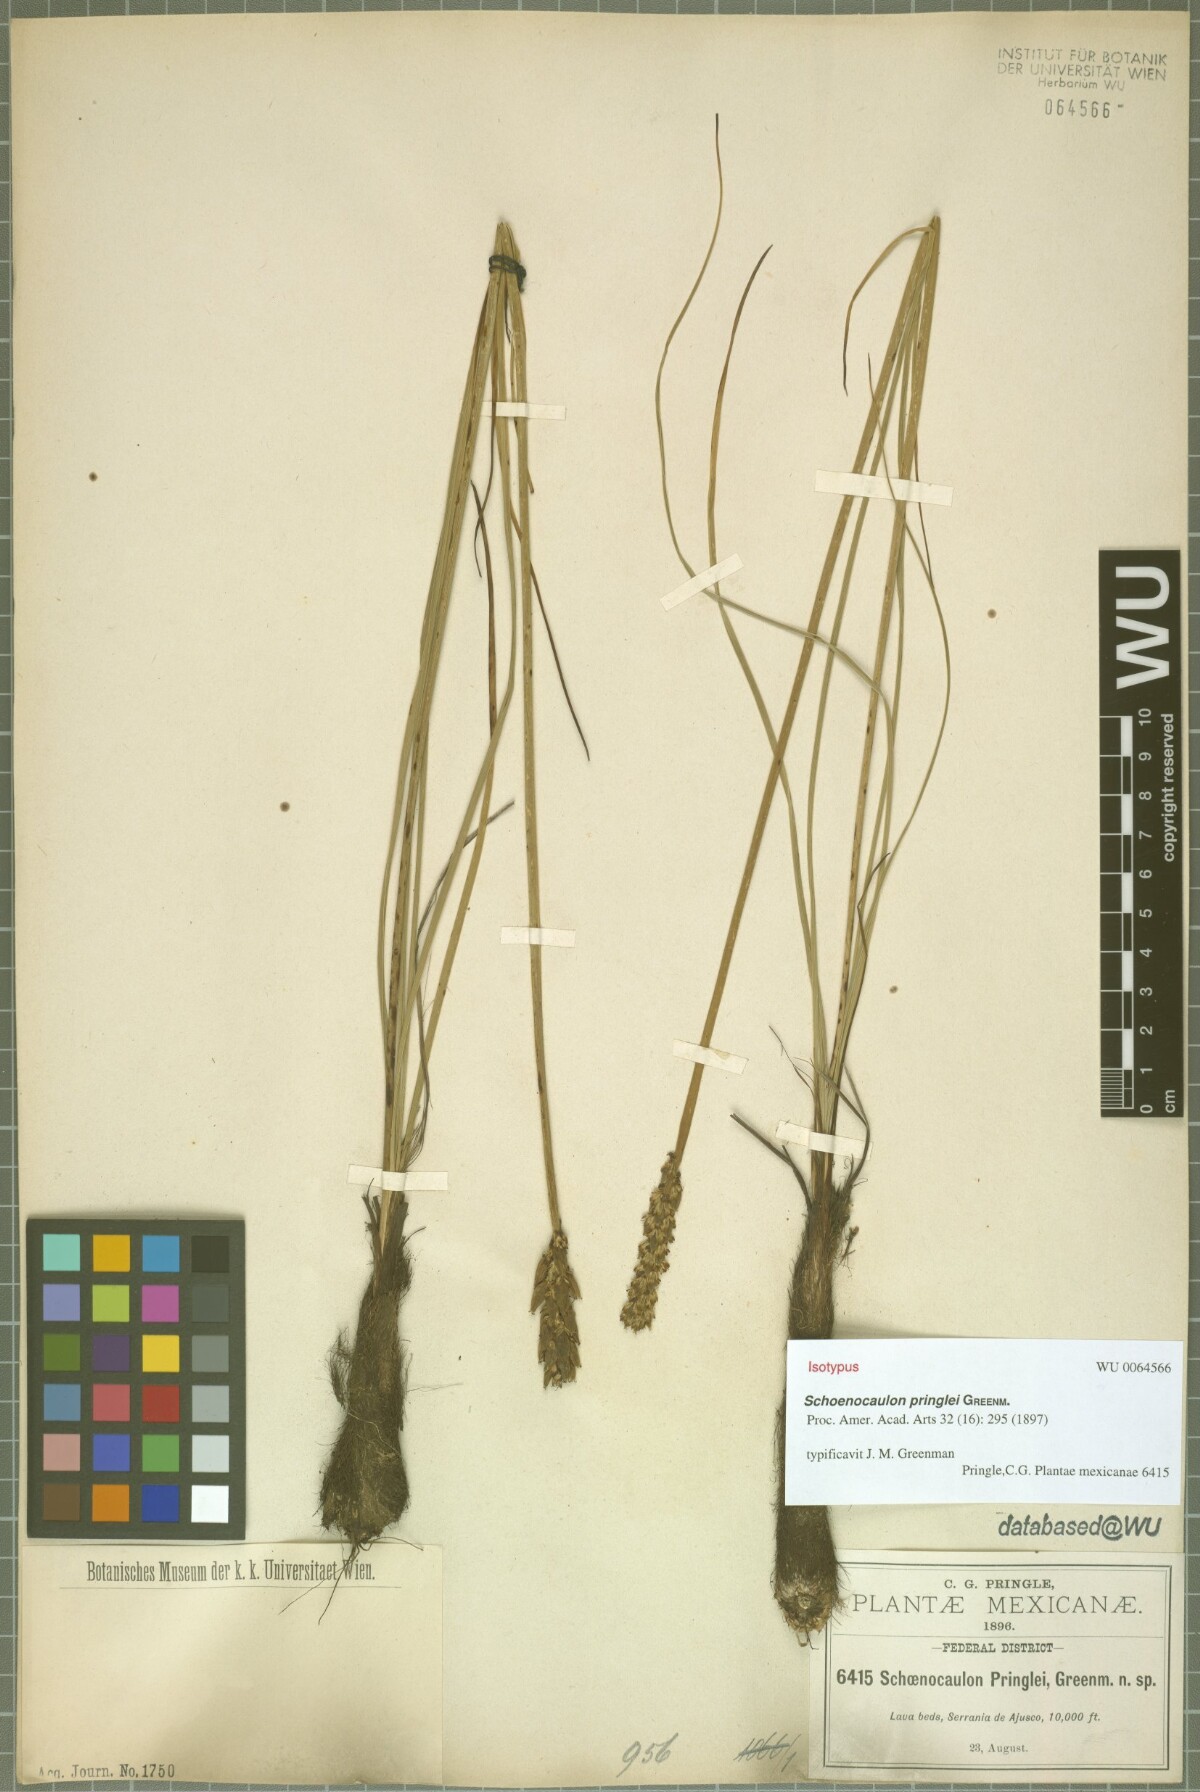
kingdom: Plantae
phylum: Tracheophyta
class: Liliopsida
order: Liliales
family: Melanthiaceae
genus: Schoenocaulon
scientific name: Schoenocaulon pringlei
